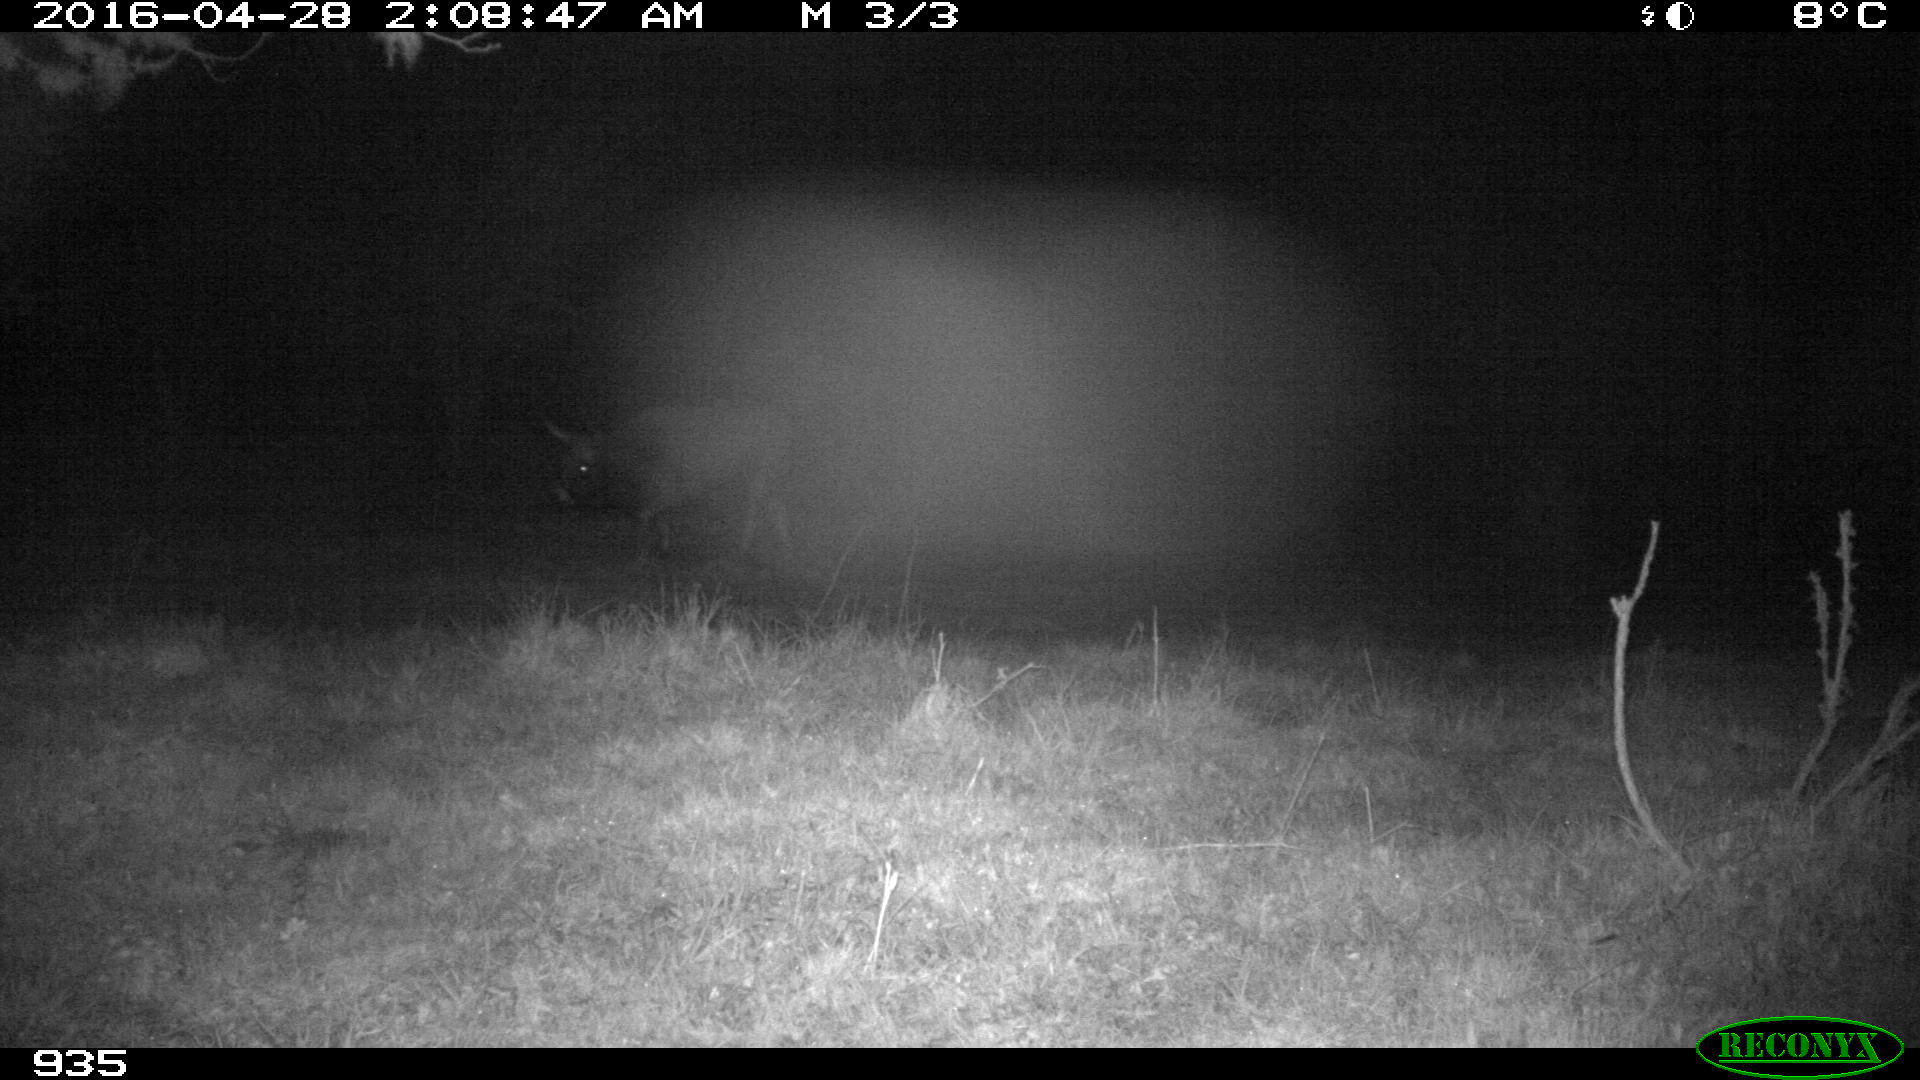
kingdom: Animalia
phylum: Chordata
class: Mammalia
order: Artiodactyla
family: Bovidae
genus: Bos
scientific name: Bos taurus
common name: Domesticated cattle
